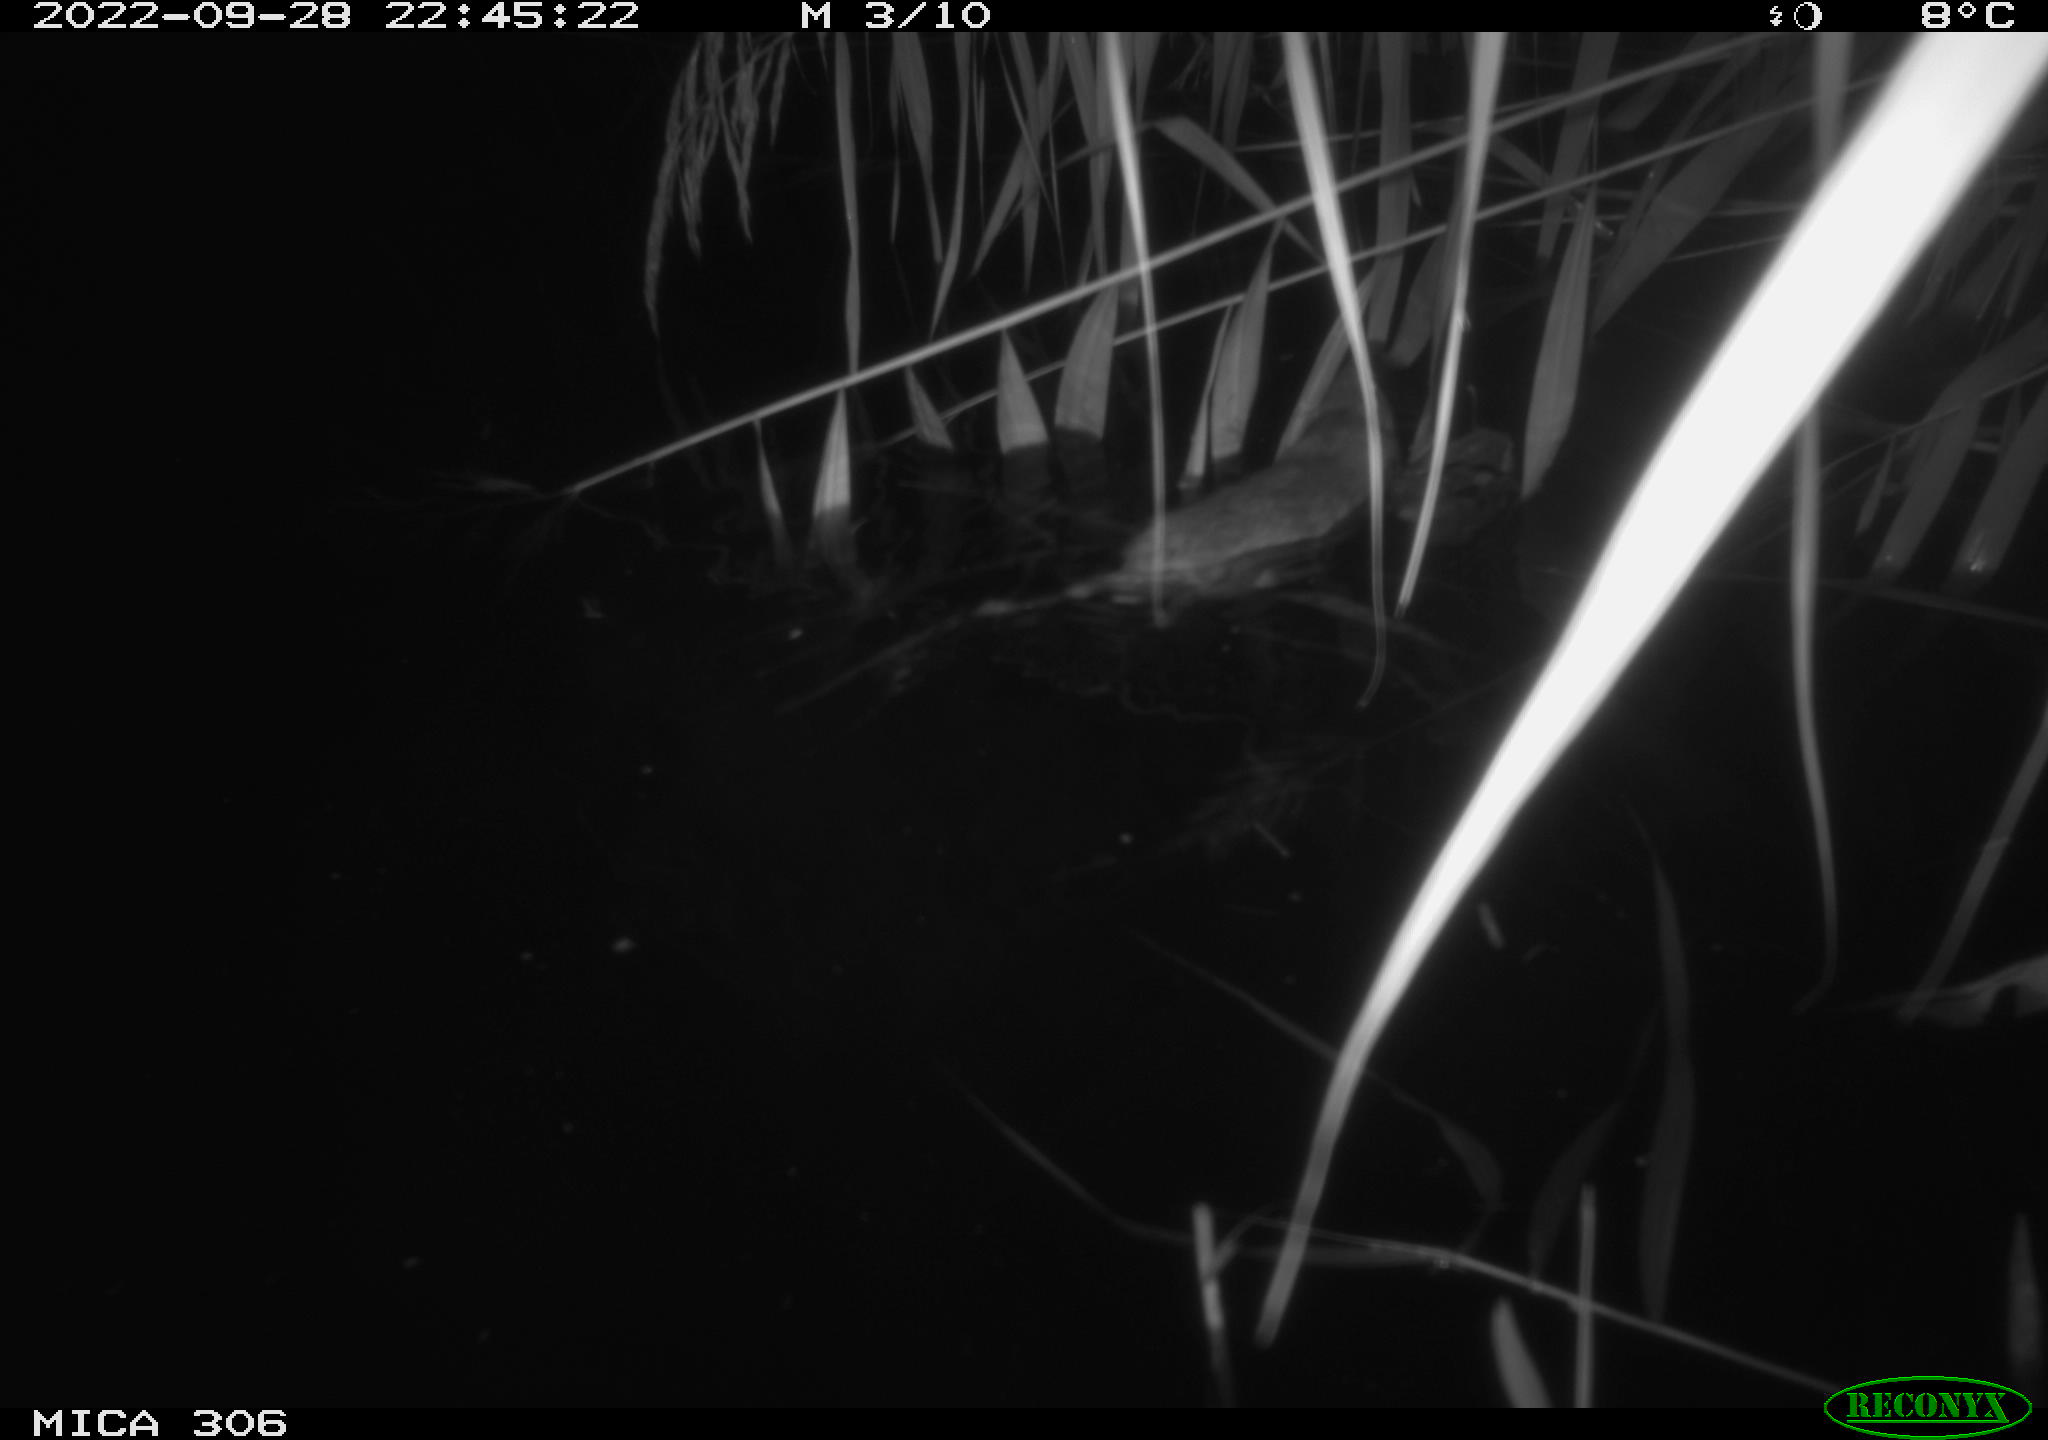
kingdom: Animalia
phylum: Chordata
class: Mammalia
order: Rodentia
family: Muridae
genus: Rattus
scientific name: Rattus norvegicus
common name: Brown rat
